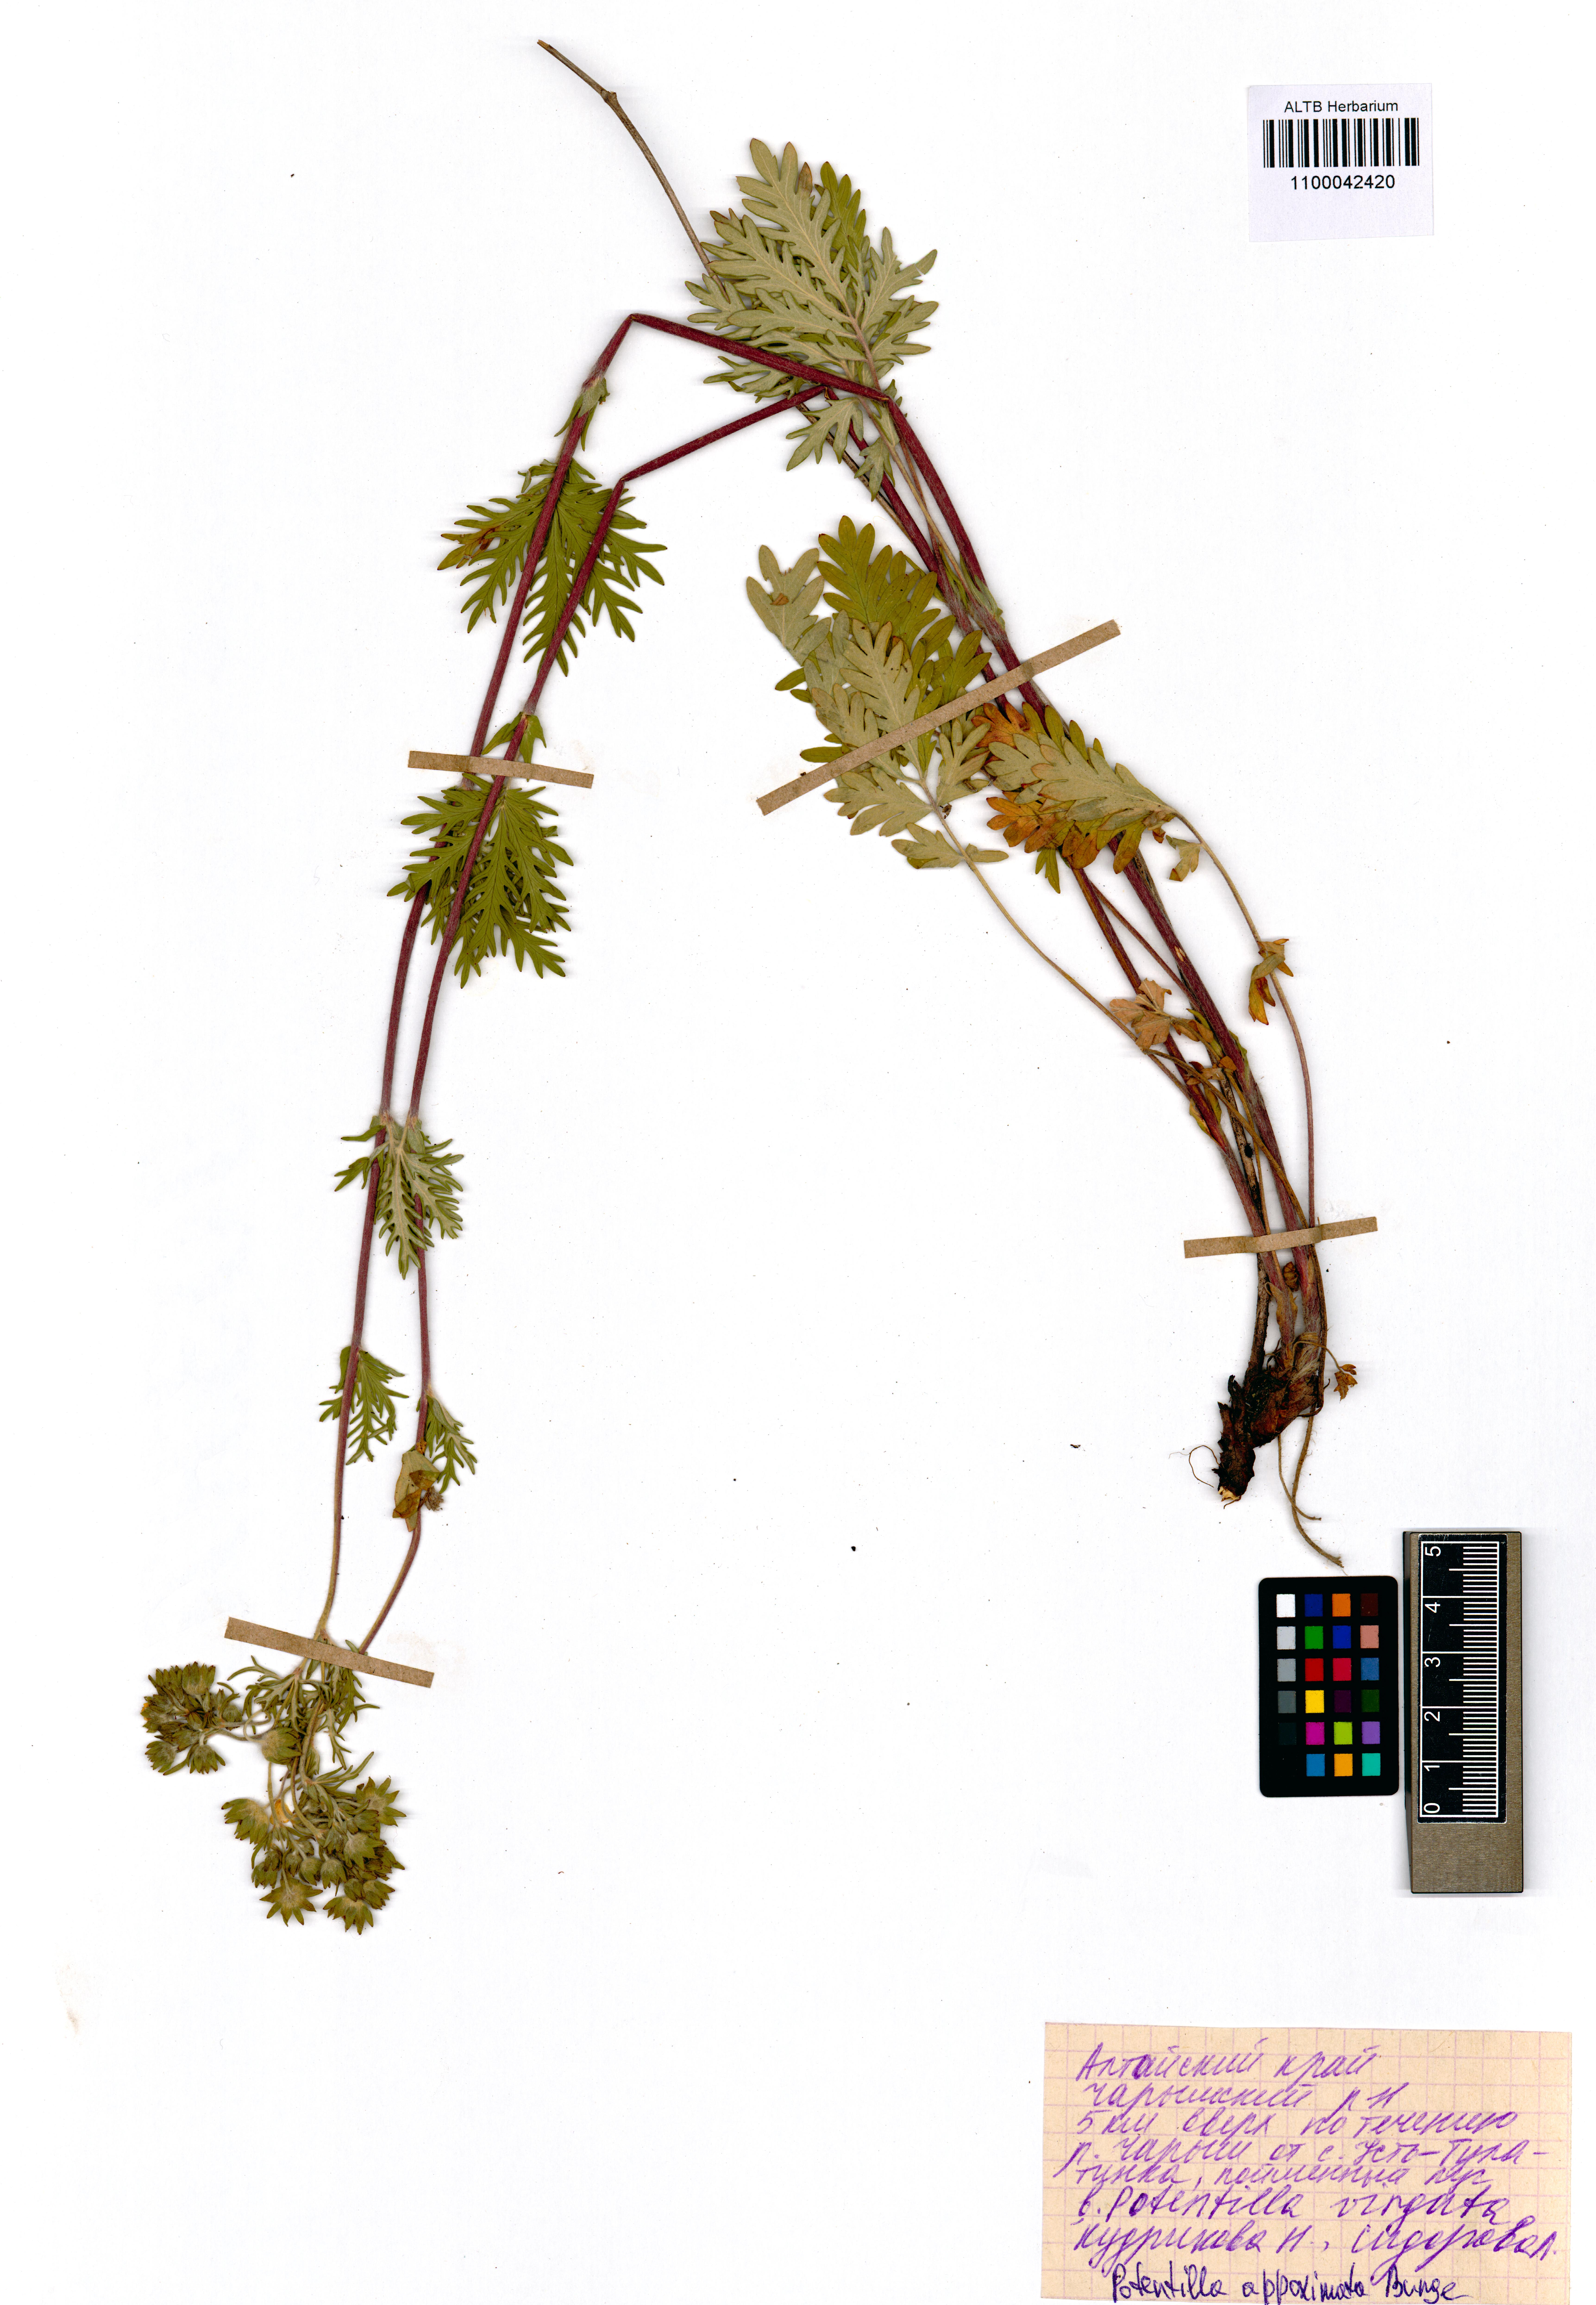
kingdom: Plantae
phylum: Tracheophyta
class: Magnoliopsida
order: Rosales
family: Rosaceae
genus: Potentilla
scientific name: Potentilla conferta
